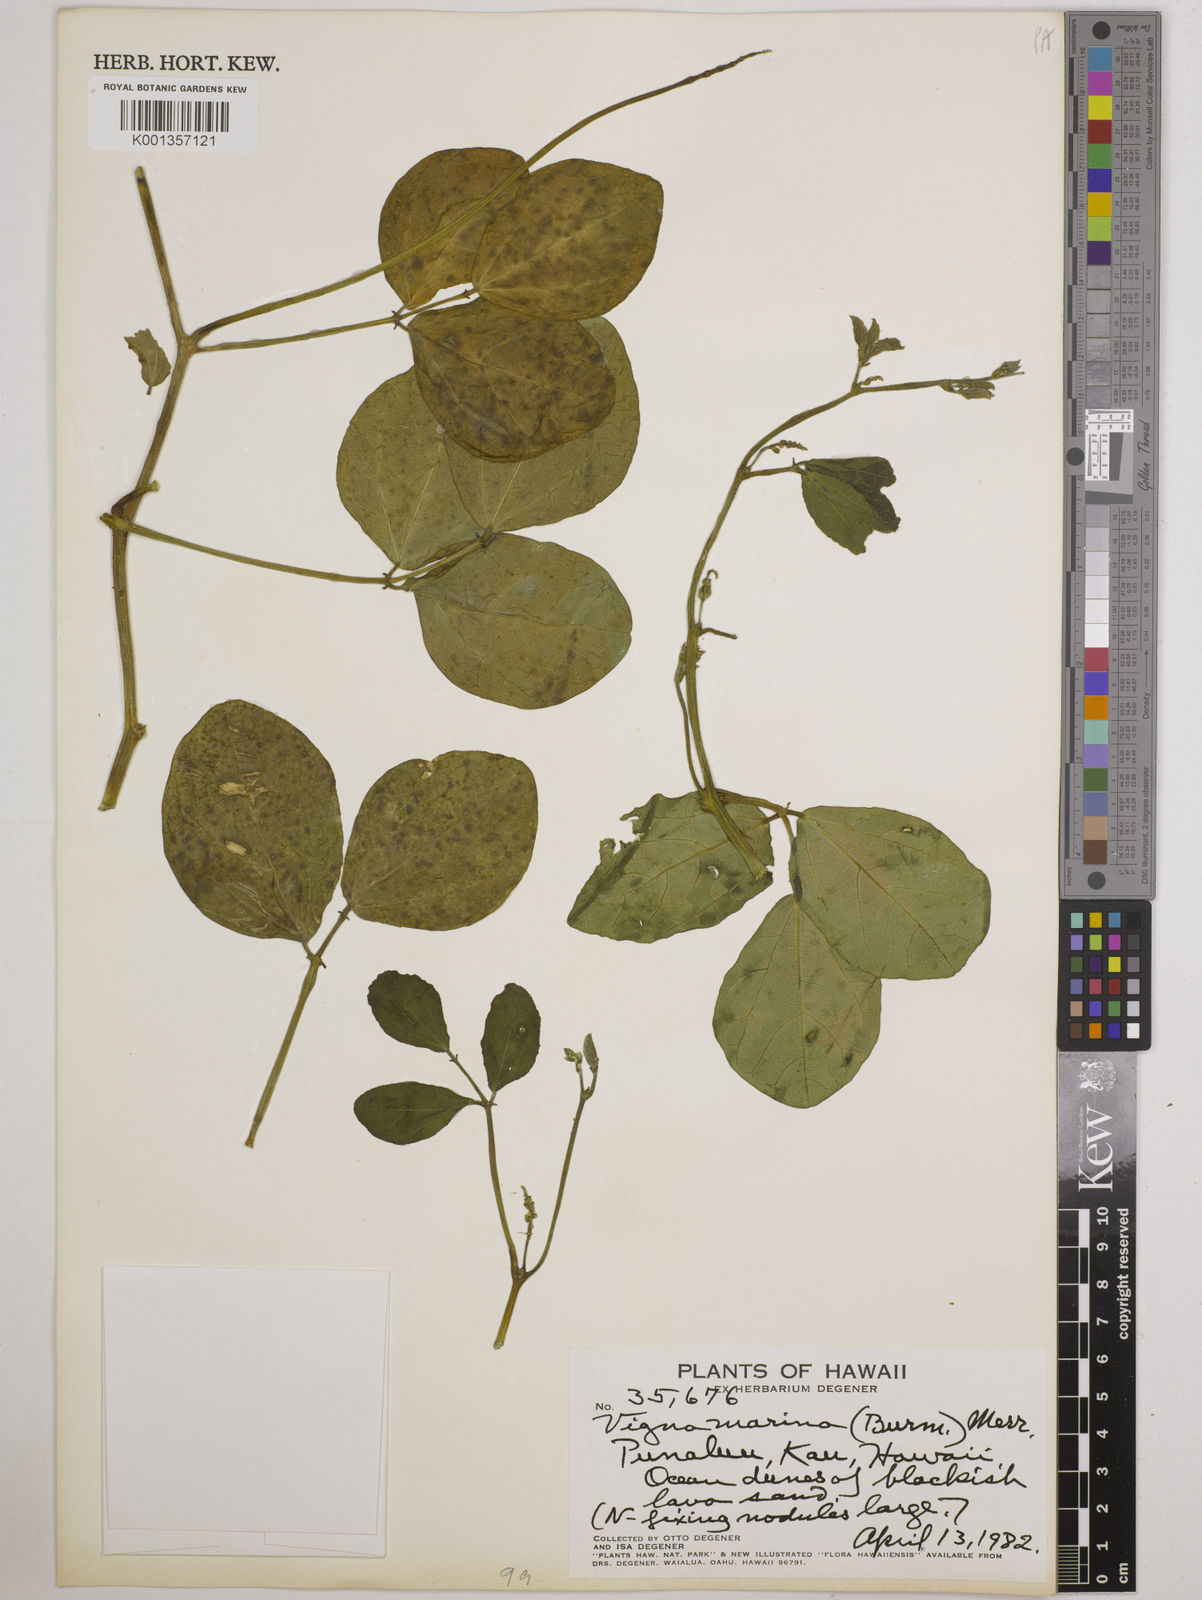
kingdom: Plantae
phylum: Tracheophyta
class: Magnoliopsida
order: Fabales
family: Fabaceae
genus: Vigna
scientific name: Vigna marina
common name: Dune-bean
